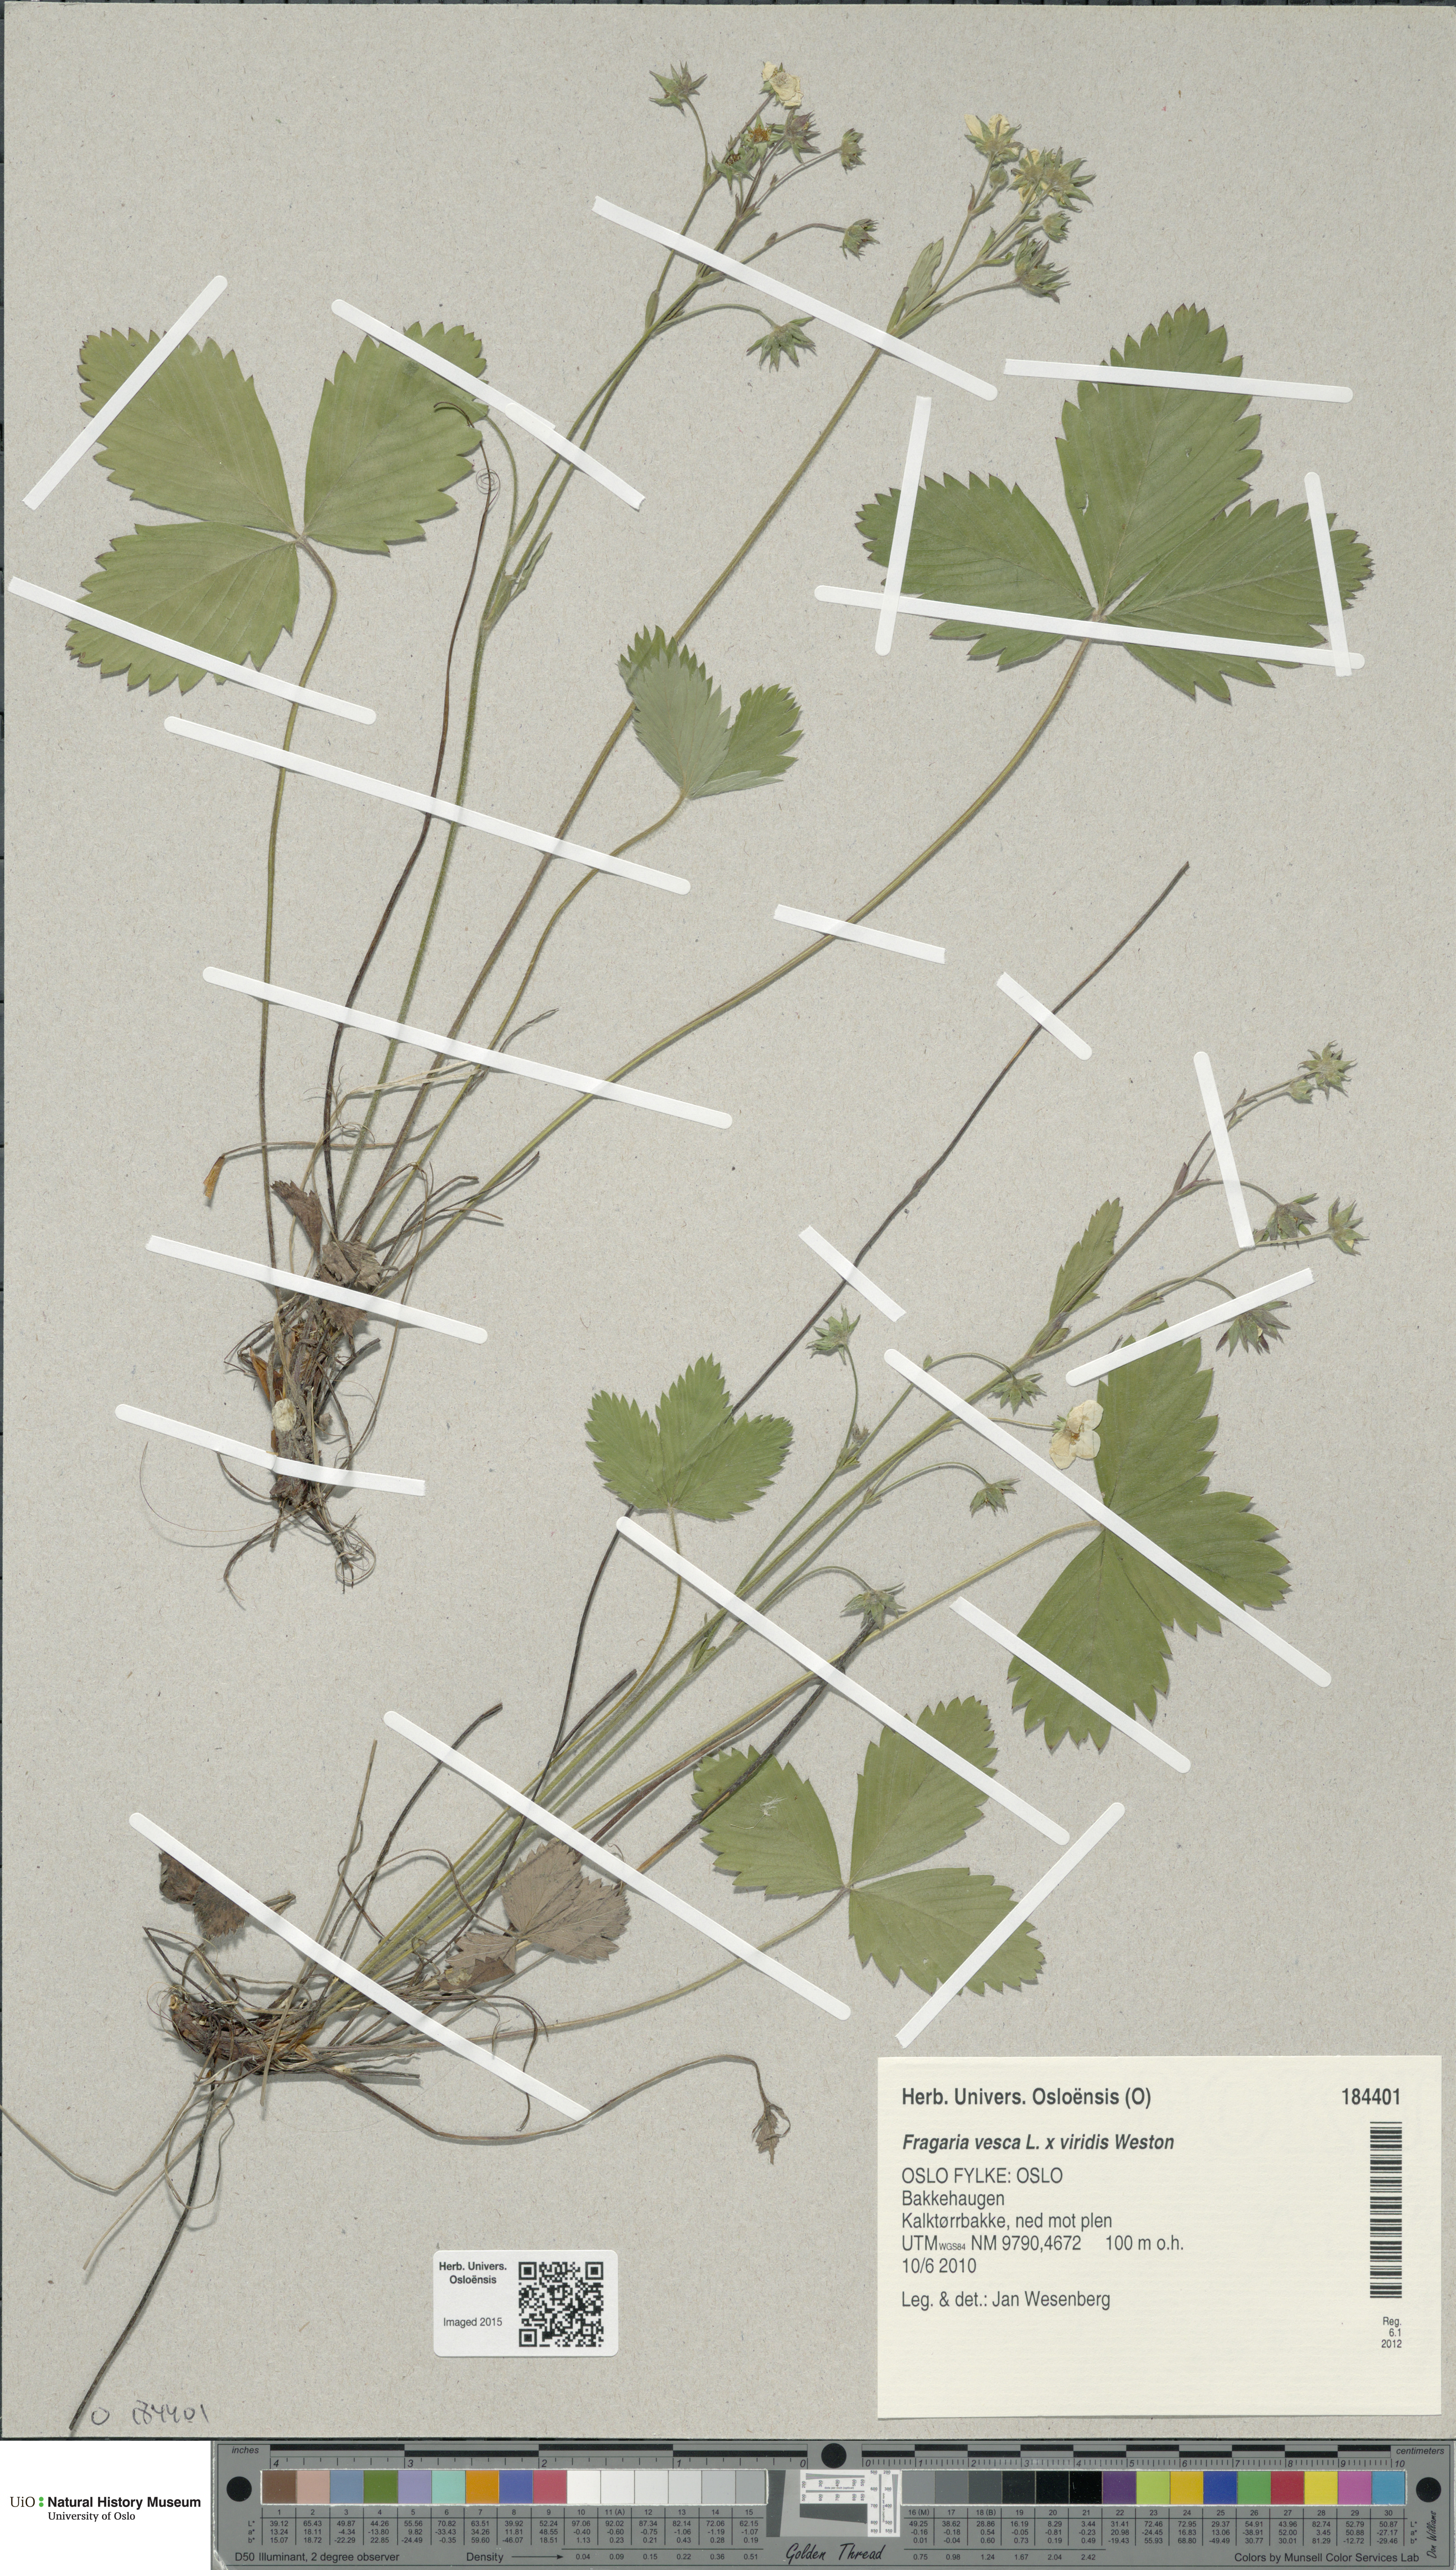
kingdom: Plantae
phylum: Tracheophyta
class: Magnoliopsida
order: Rosales
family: Rosaceae
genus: Fragaria
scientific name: Fragaria
